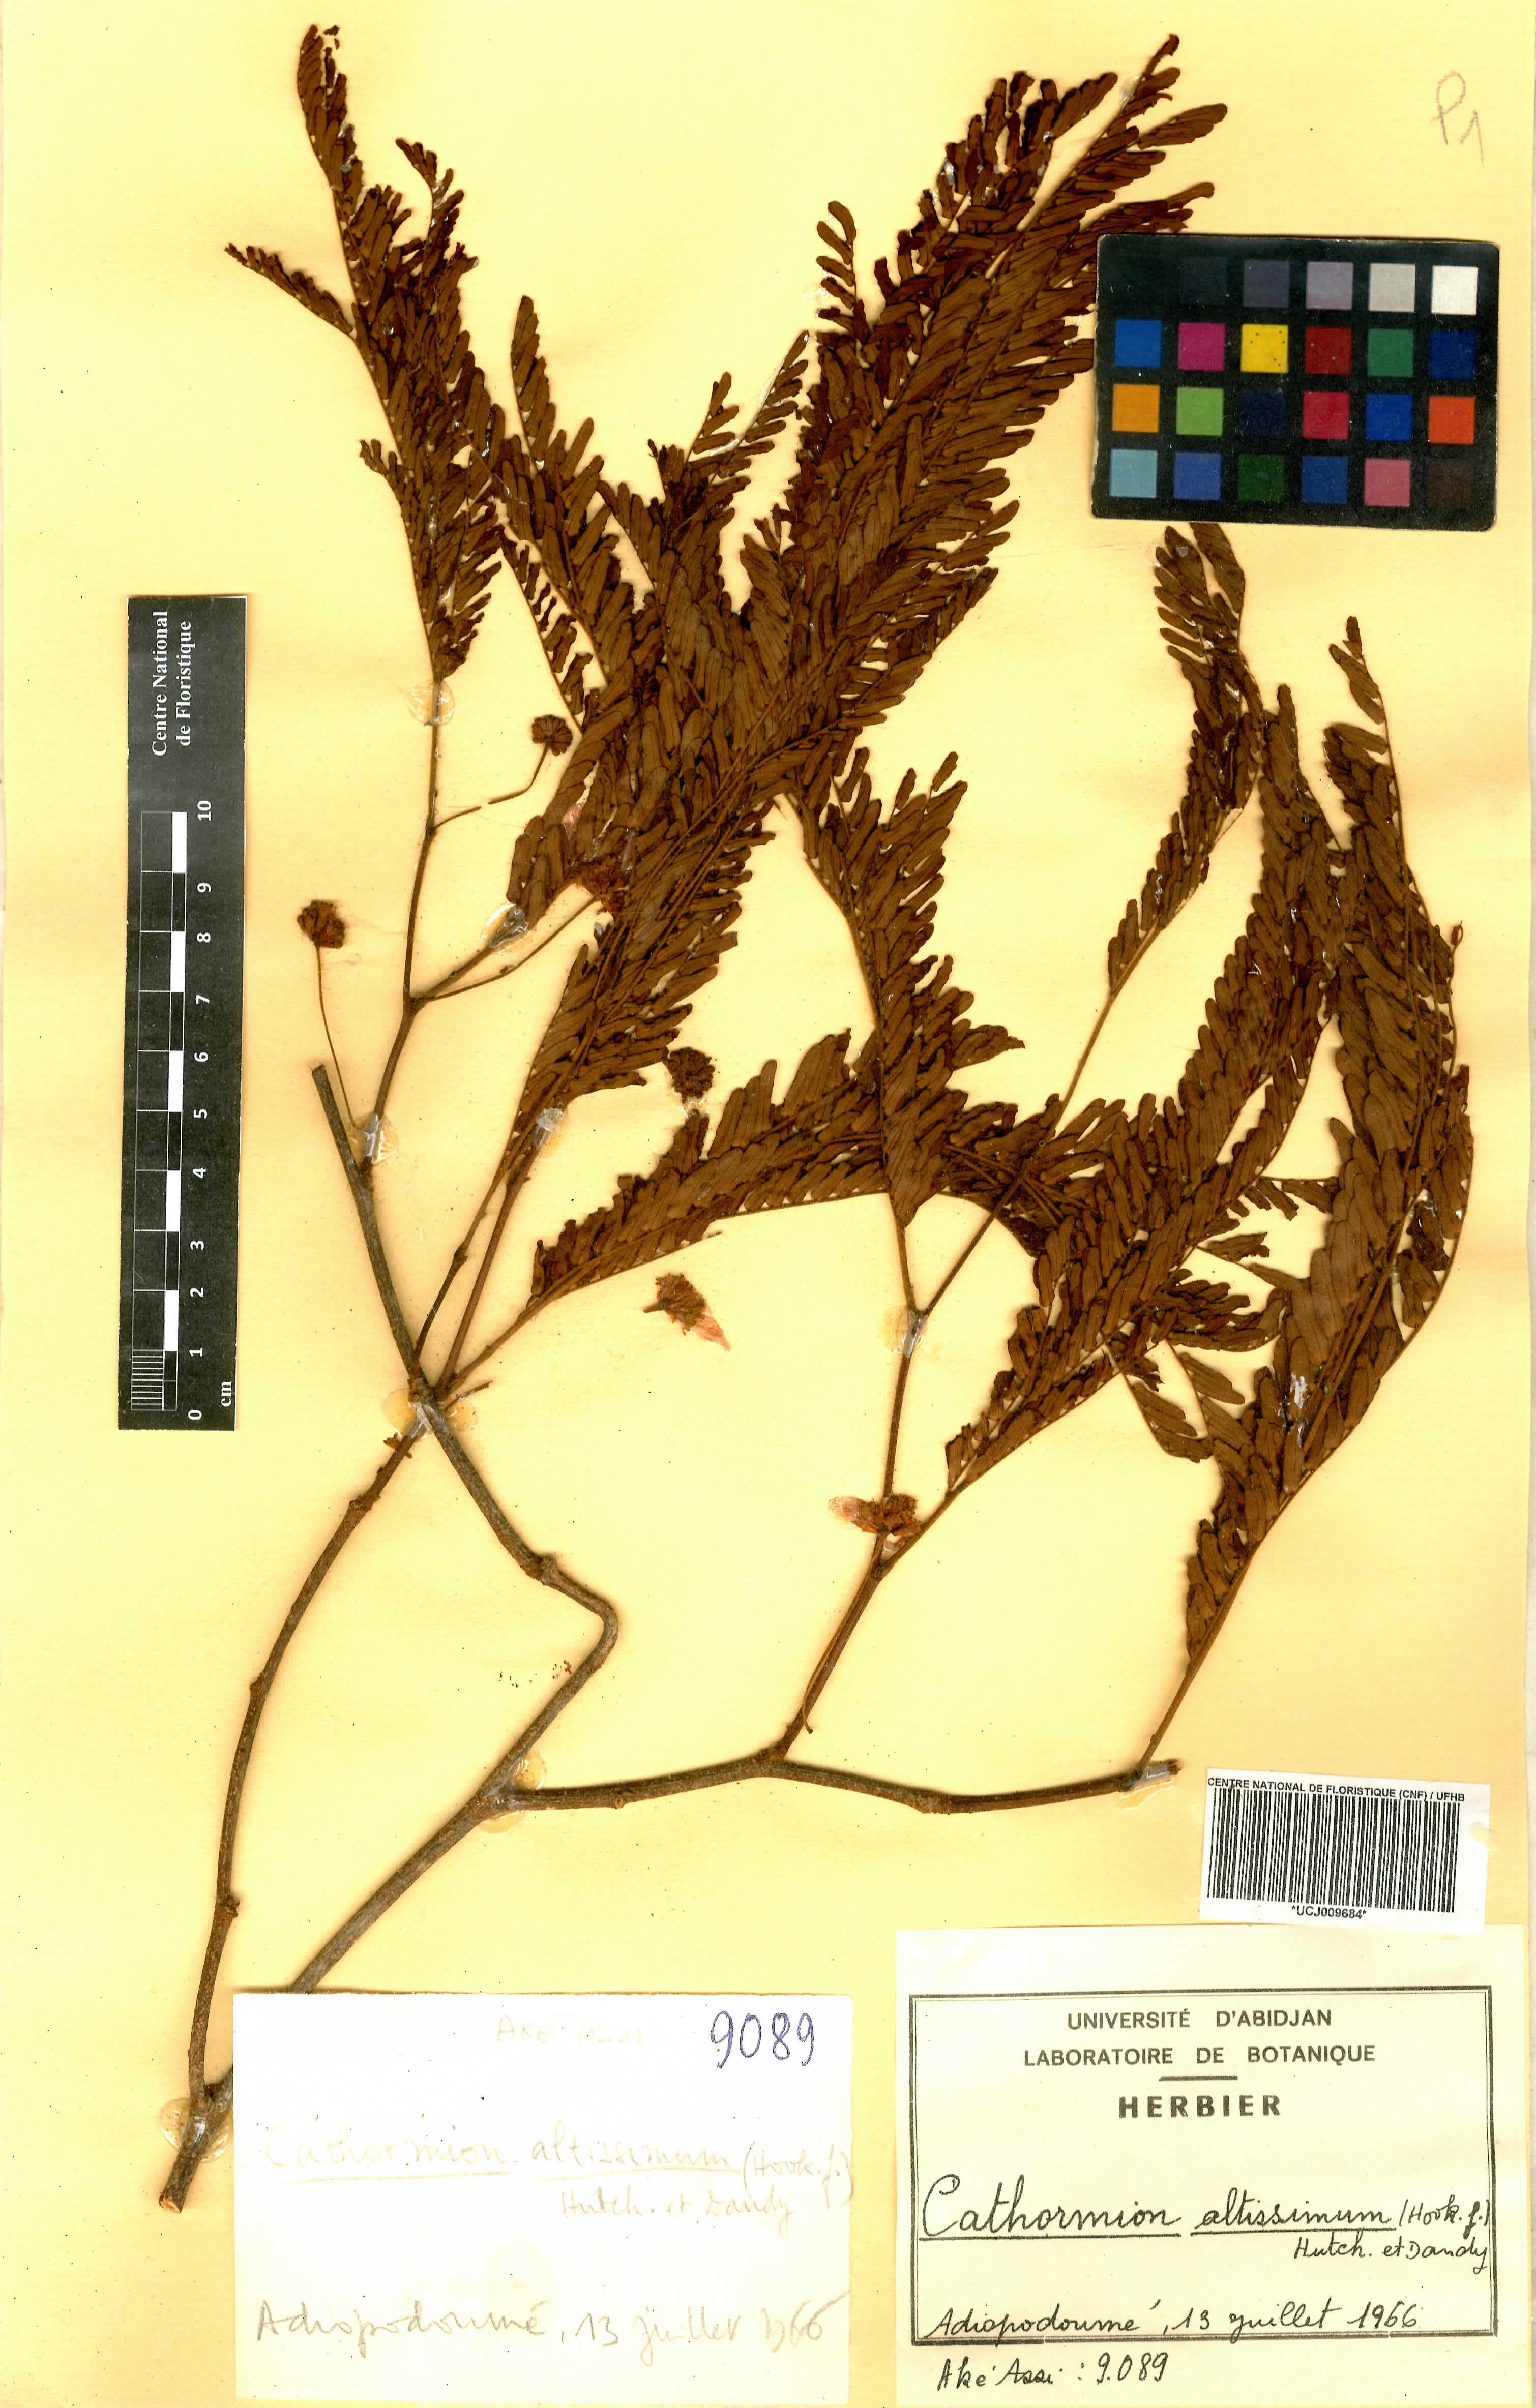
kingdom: Plantae
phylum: Tracheophyta
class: Magnoliopsida
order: Fabales
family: Fabaceae
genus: Albizia
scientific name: Albizia altissima
